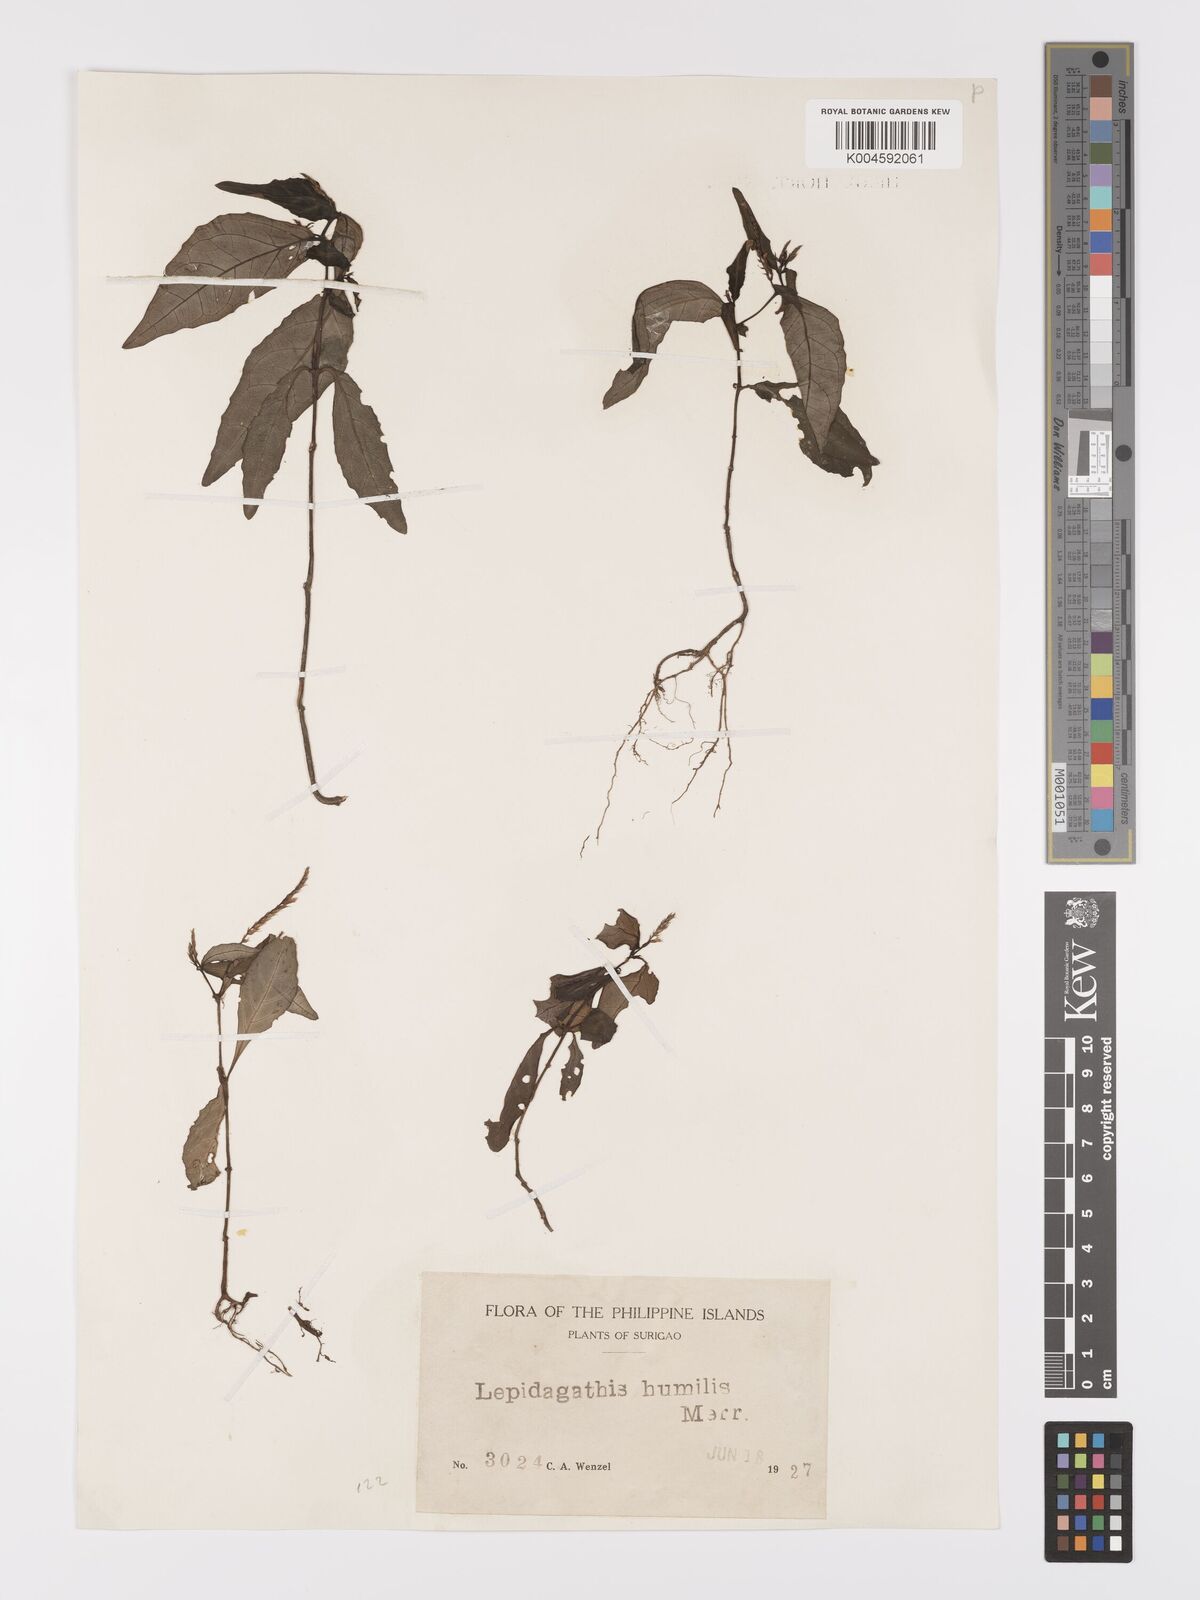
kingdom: Plantae
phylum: Tracheophyta
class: Magnoliopsida
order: Lamiales
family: Acanthaceae
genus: Lepidagathis
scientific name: Lepidagathis humilis
